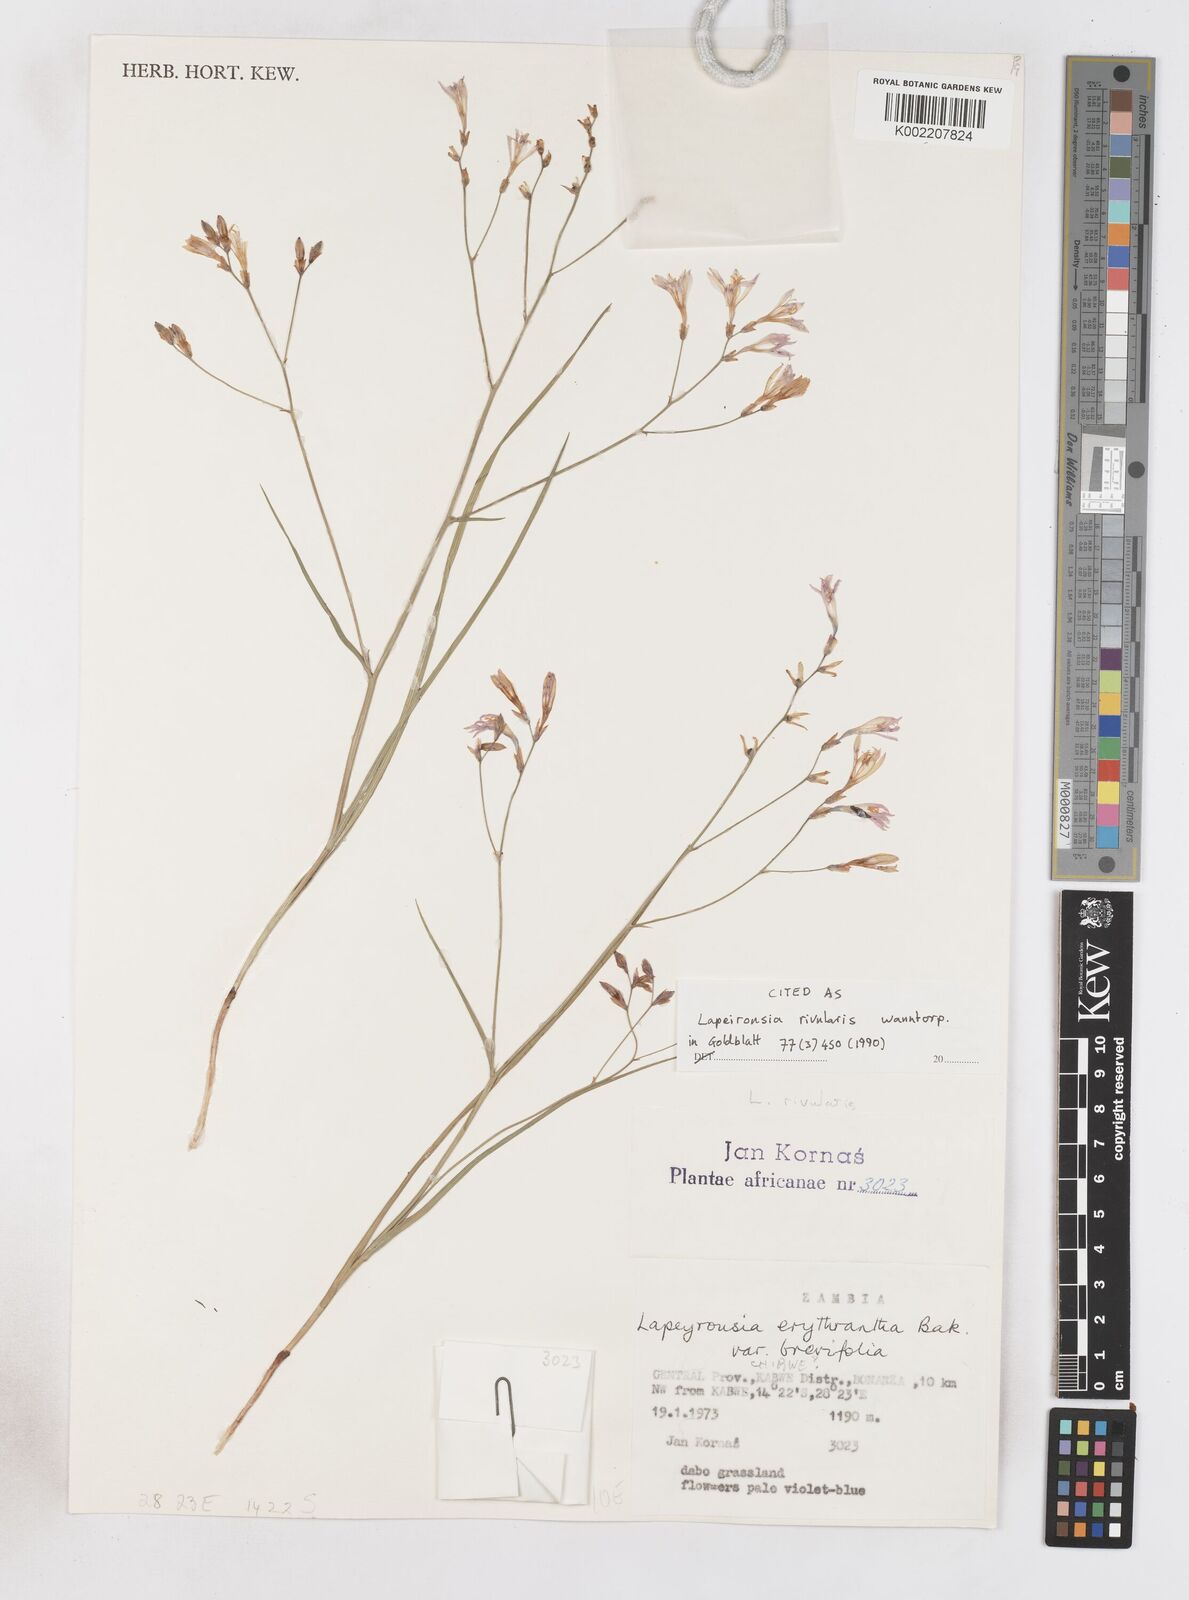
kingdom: Plantae
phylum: Tracheophyta
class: Liliopsida
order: Asparagales
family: Iridaceae
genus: Afrosolen
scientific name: Afrosolen rivularis
